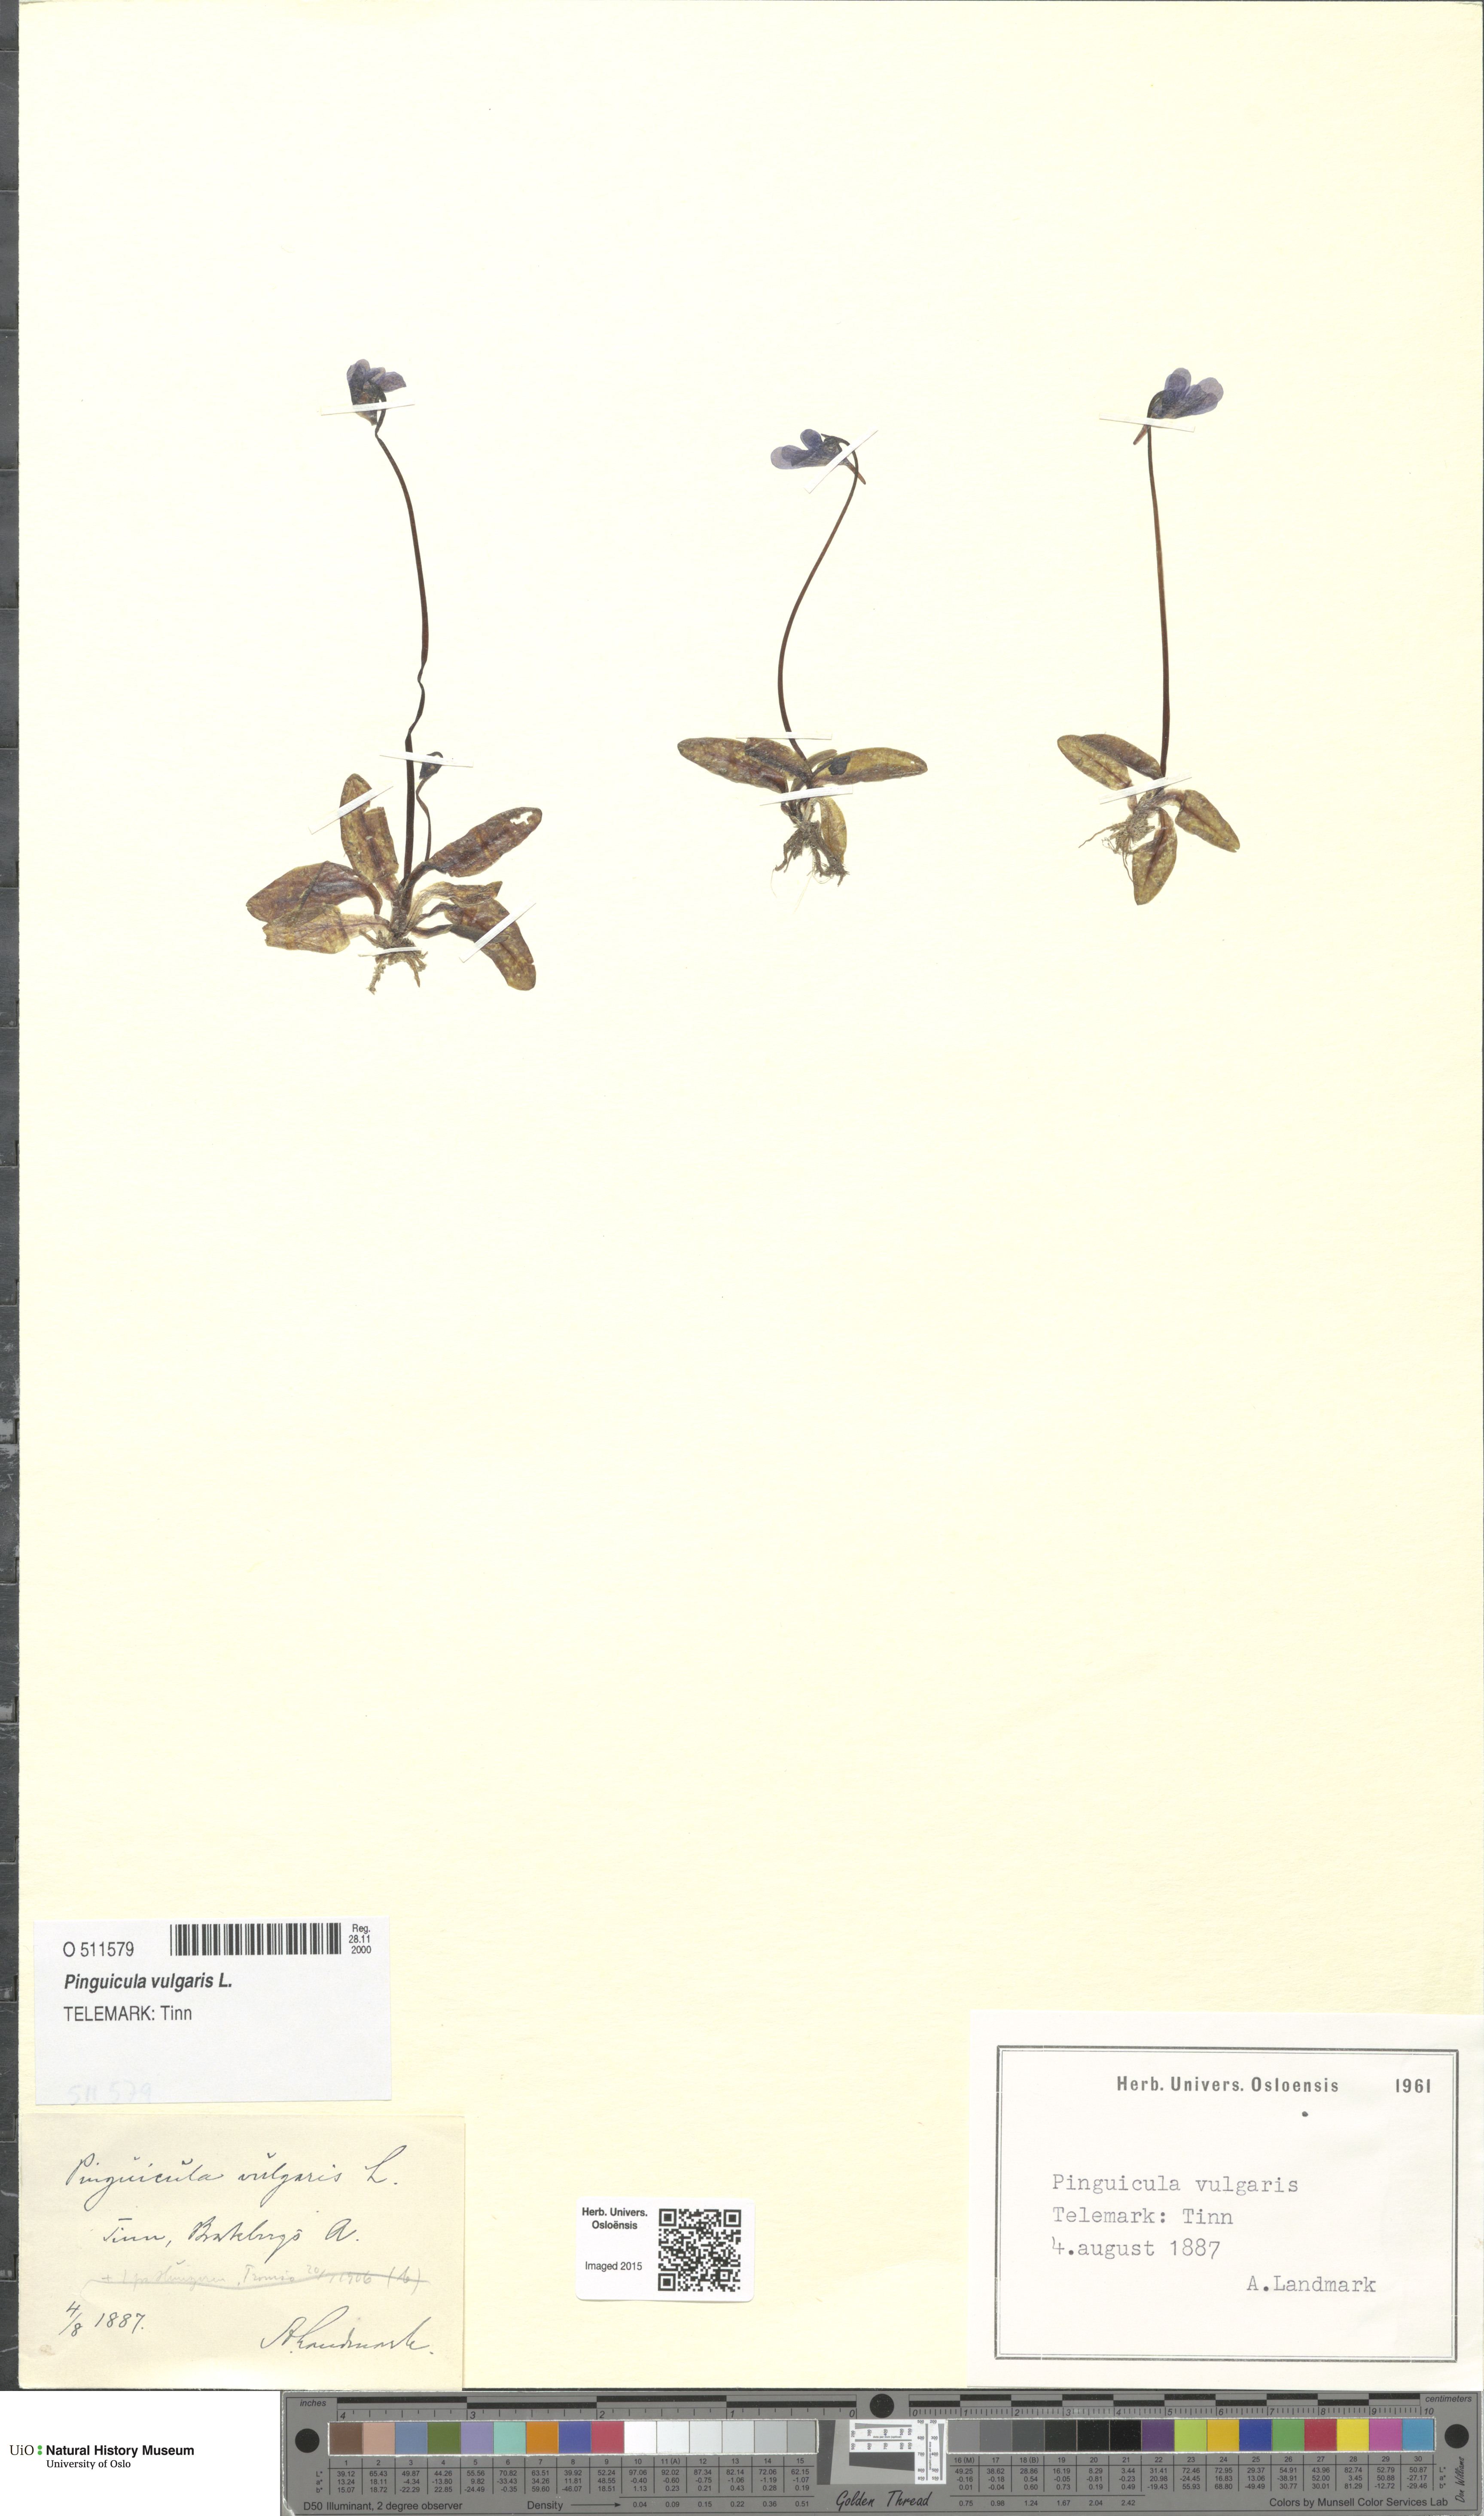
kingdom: Plantae
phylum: Tracheophyta
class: Magnoliopsida
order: Lamiales
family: Lentibulariaceae
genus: Pinguicula
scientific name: Pinguicula vulgaris
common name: Common butterwort
